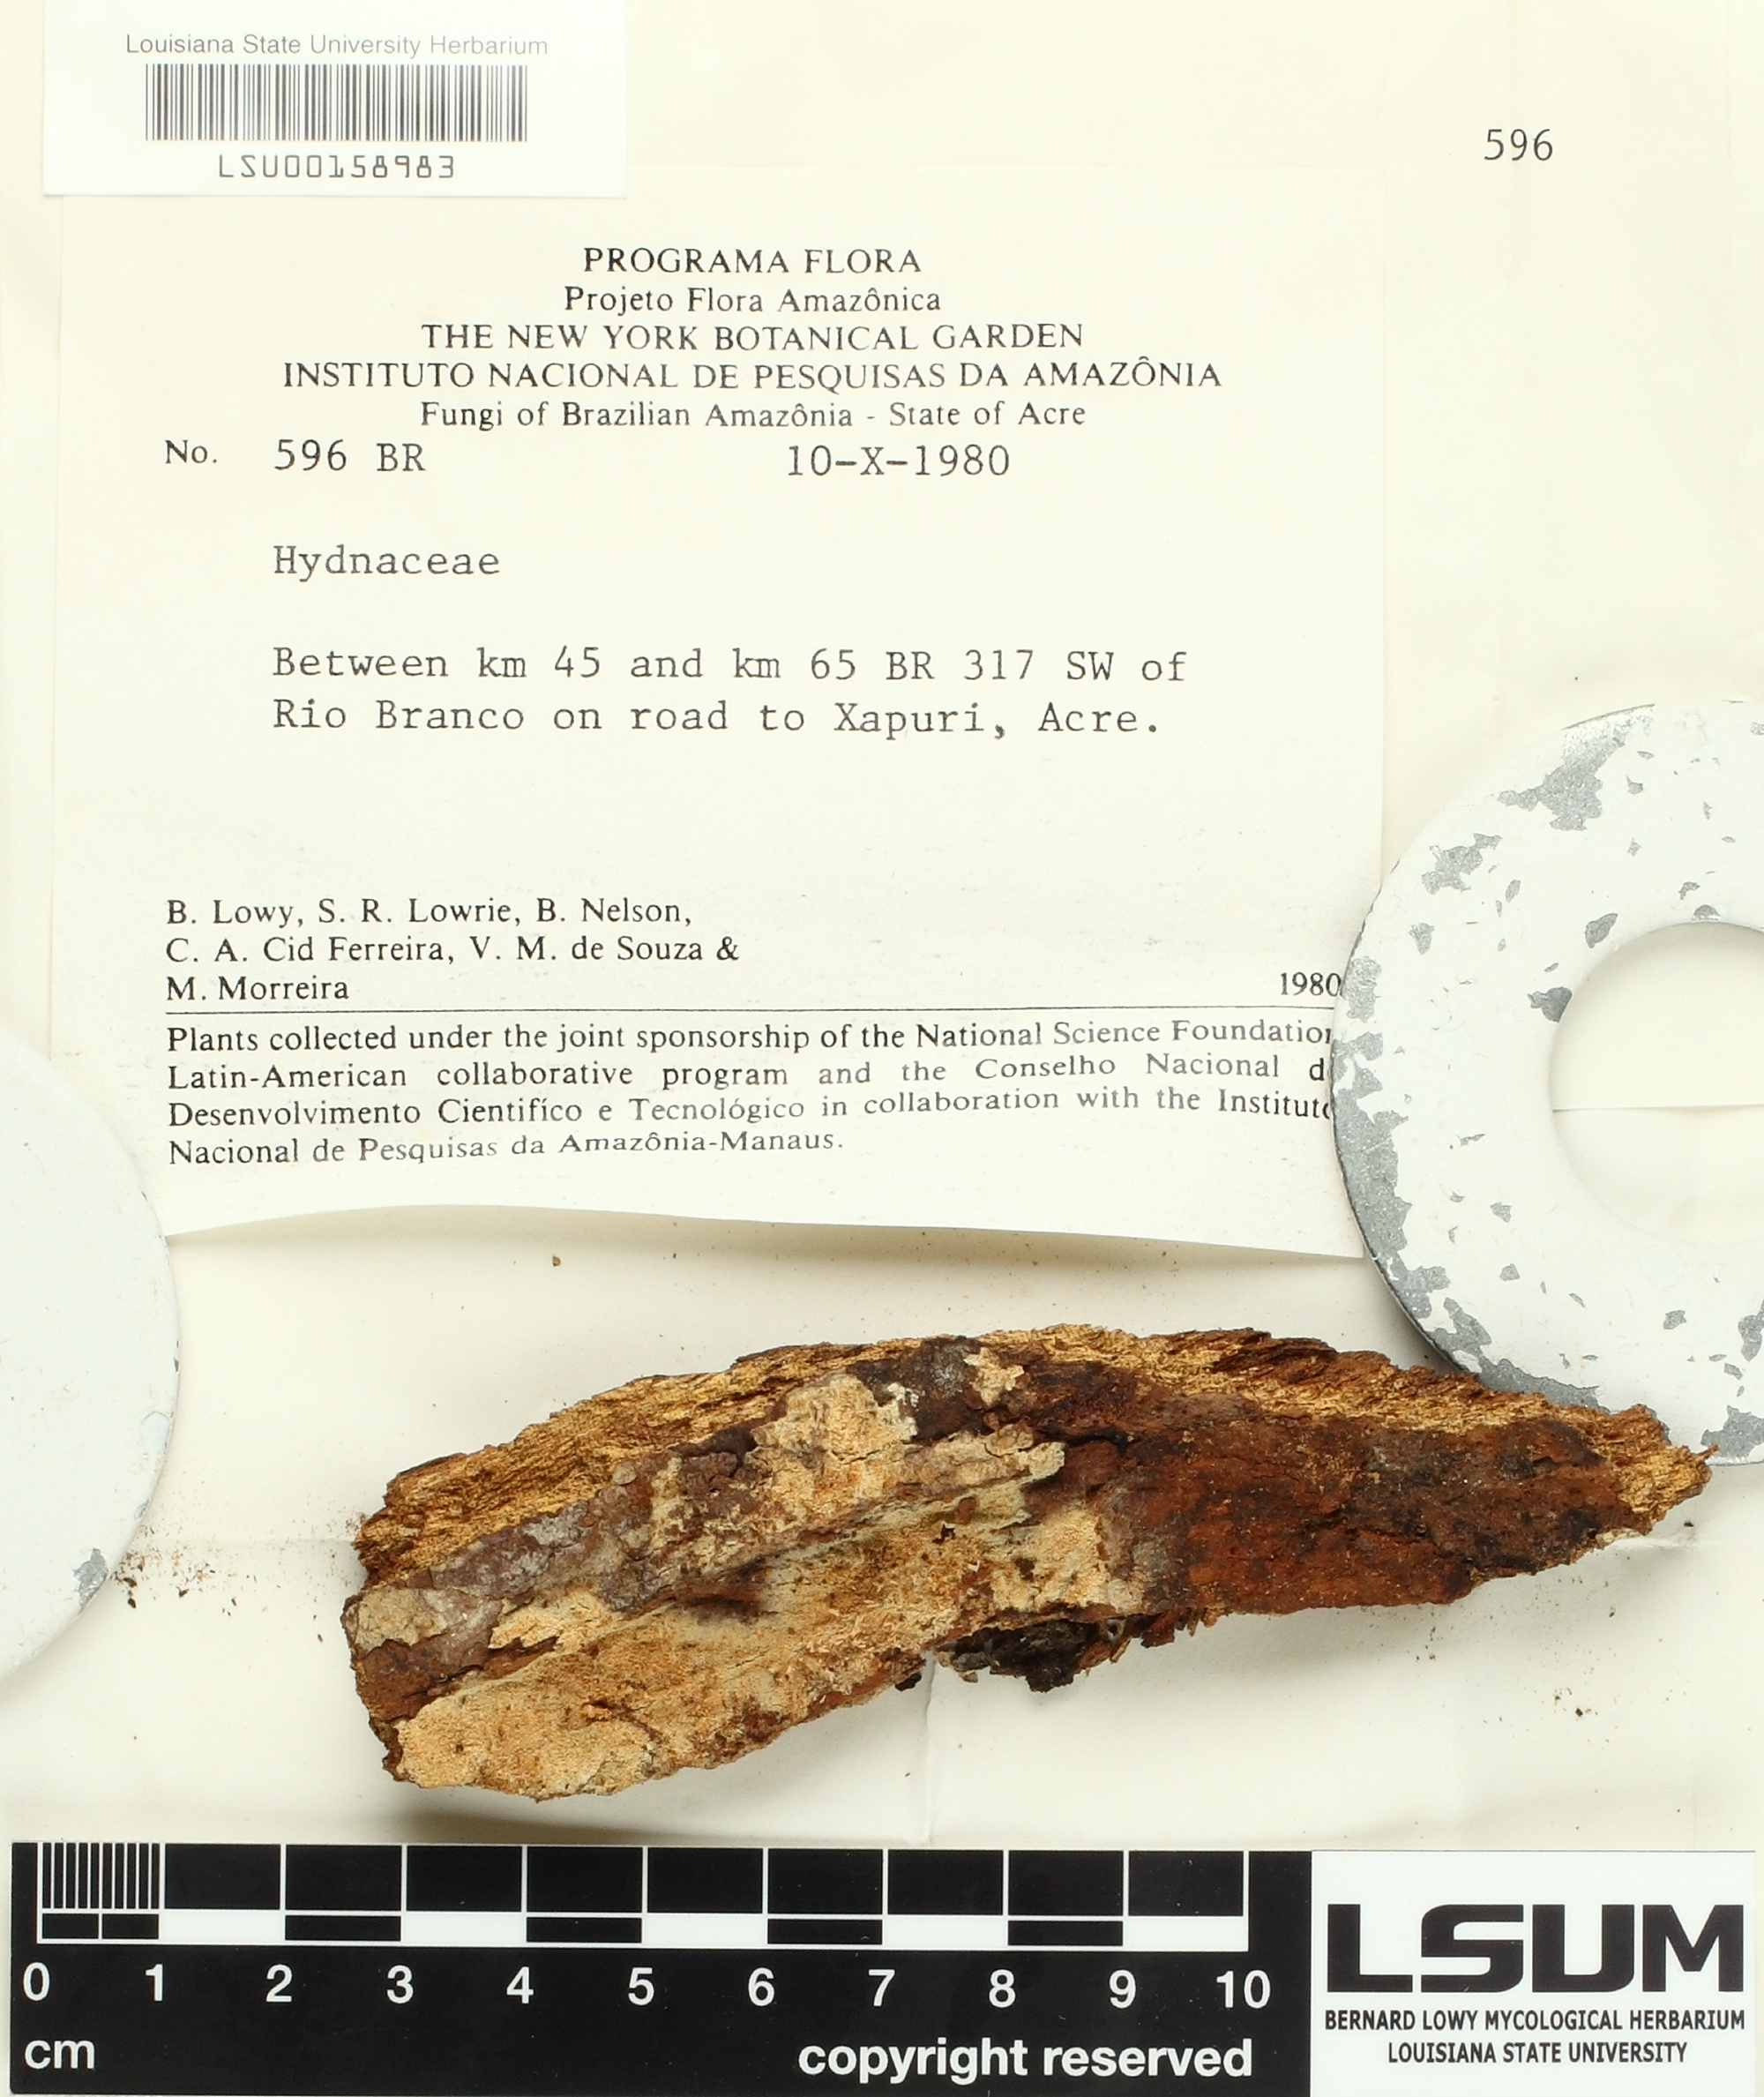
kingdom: Fungi
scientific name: Fungi
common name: Fungi
